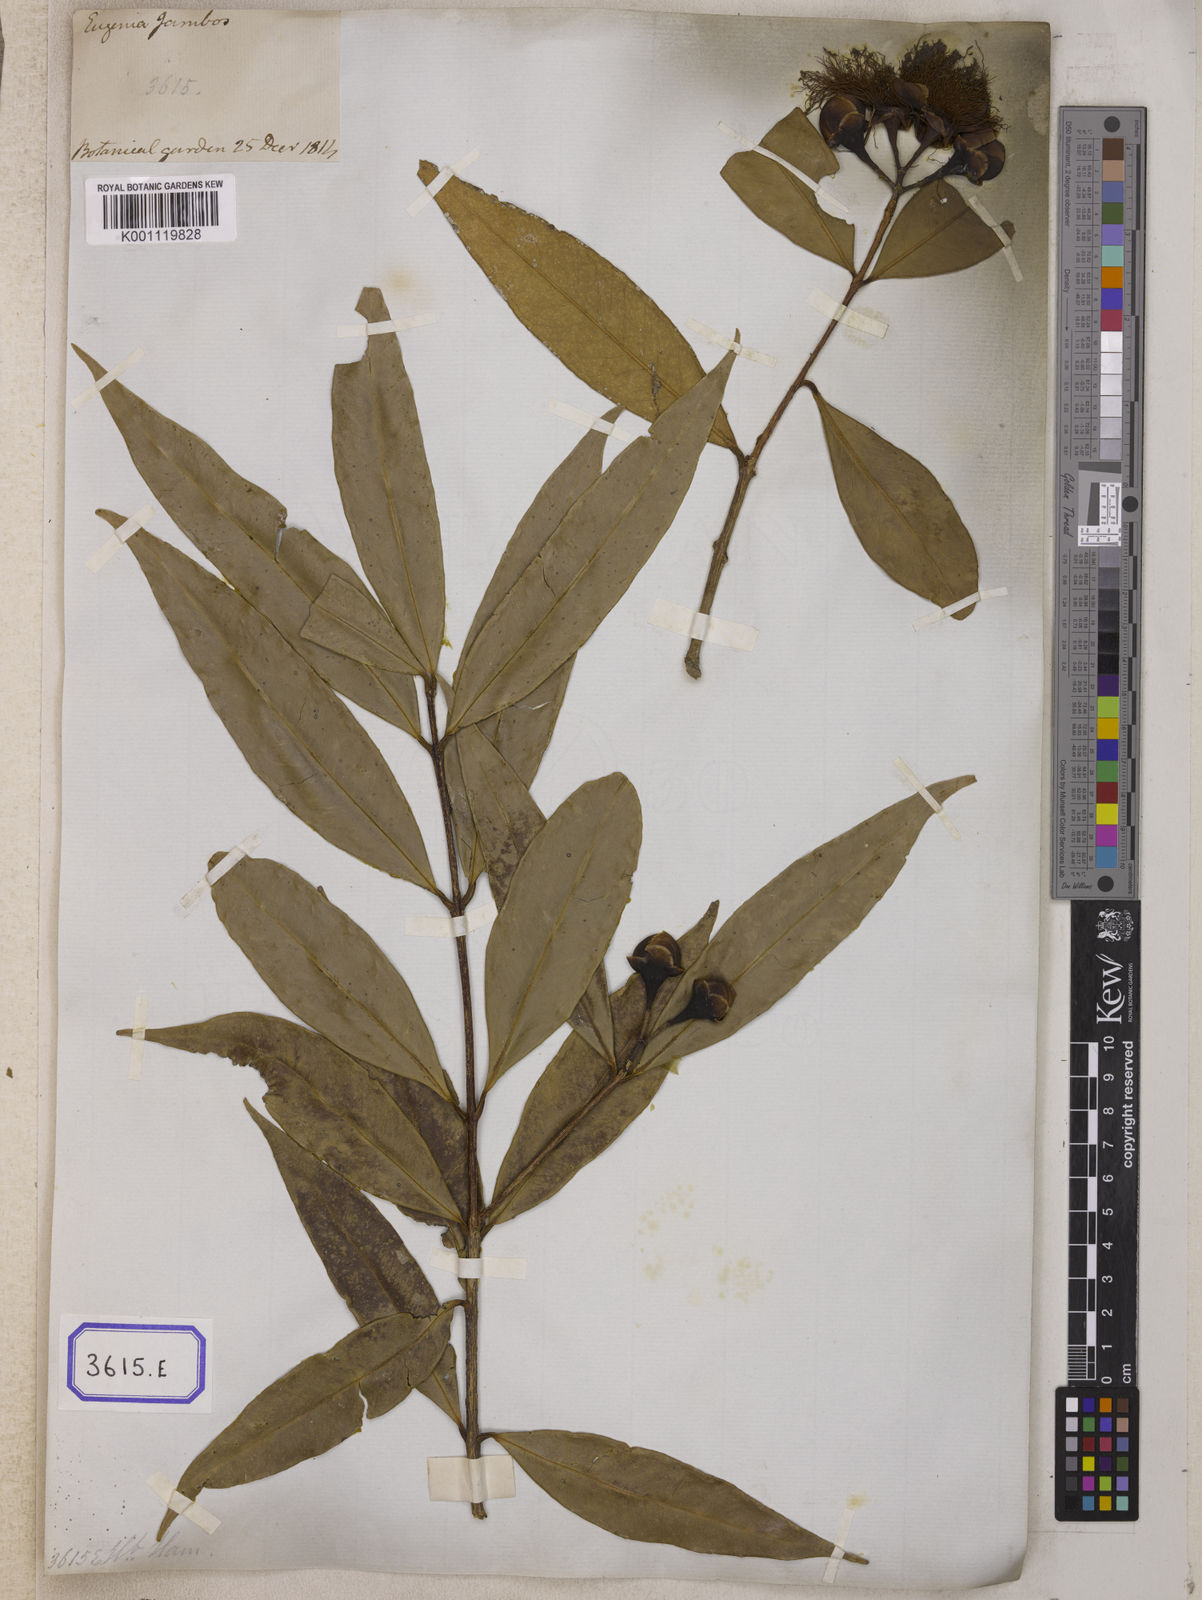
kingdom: Plantae
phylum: Tracheophyta
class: Magnoliopsida
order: Myrtales
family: Myrtaceae
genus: Syzygium
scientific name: Syzygium jambos
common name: Malabar plum
